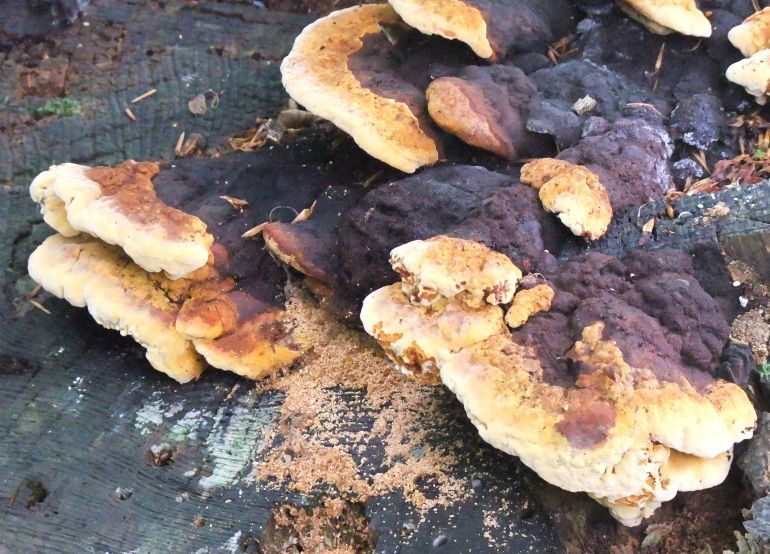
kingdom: Fungi
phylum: Basidiomycota
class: Agaricomycetes
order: Gloeophyllales
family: Gloeophyllaceae
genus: Gloeophyllum
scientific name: Gloeophyllum odoratum
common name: duftende korkhat
